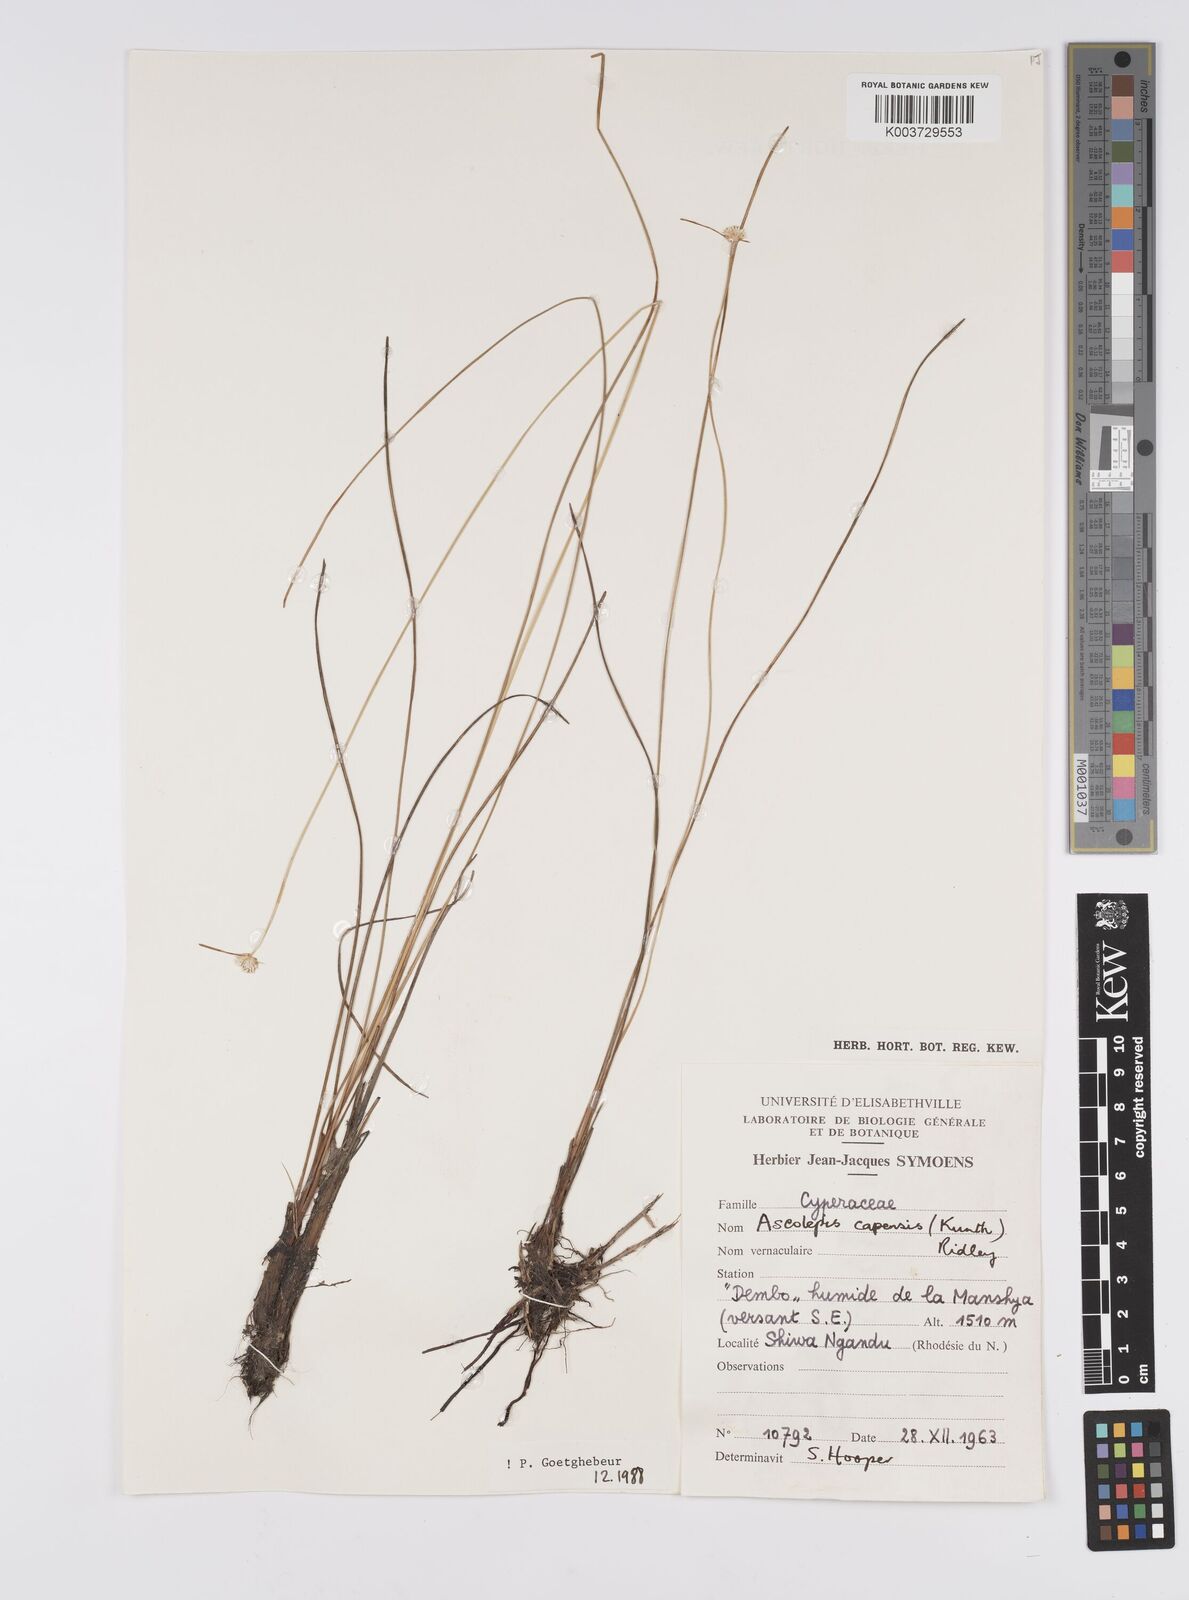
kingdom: Plantae
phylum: Tracheophyta
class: Liliopsida
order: Poales
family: Cyperaceae
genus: Cyperus
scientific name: Cyperus
